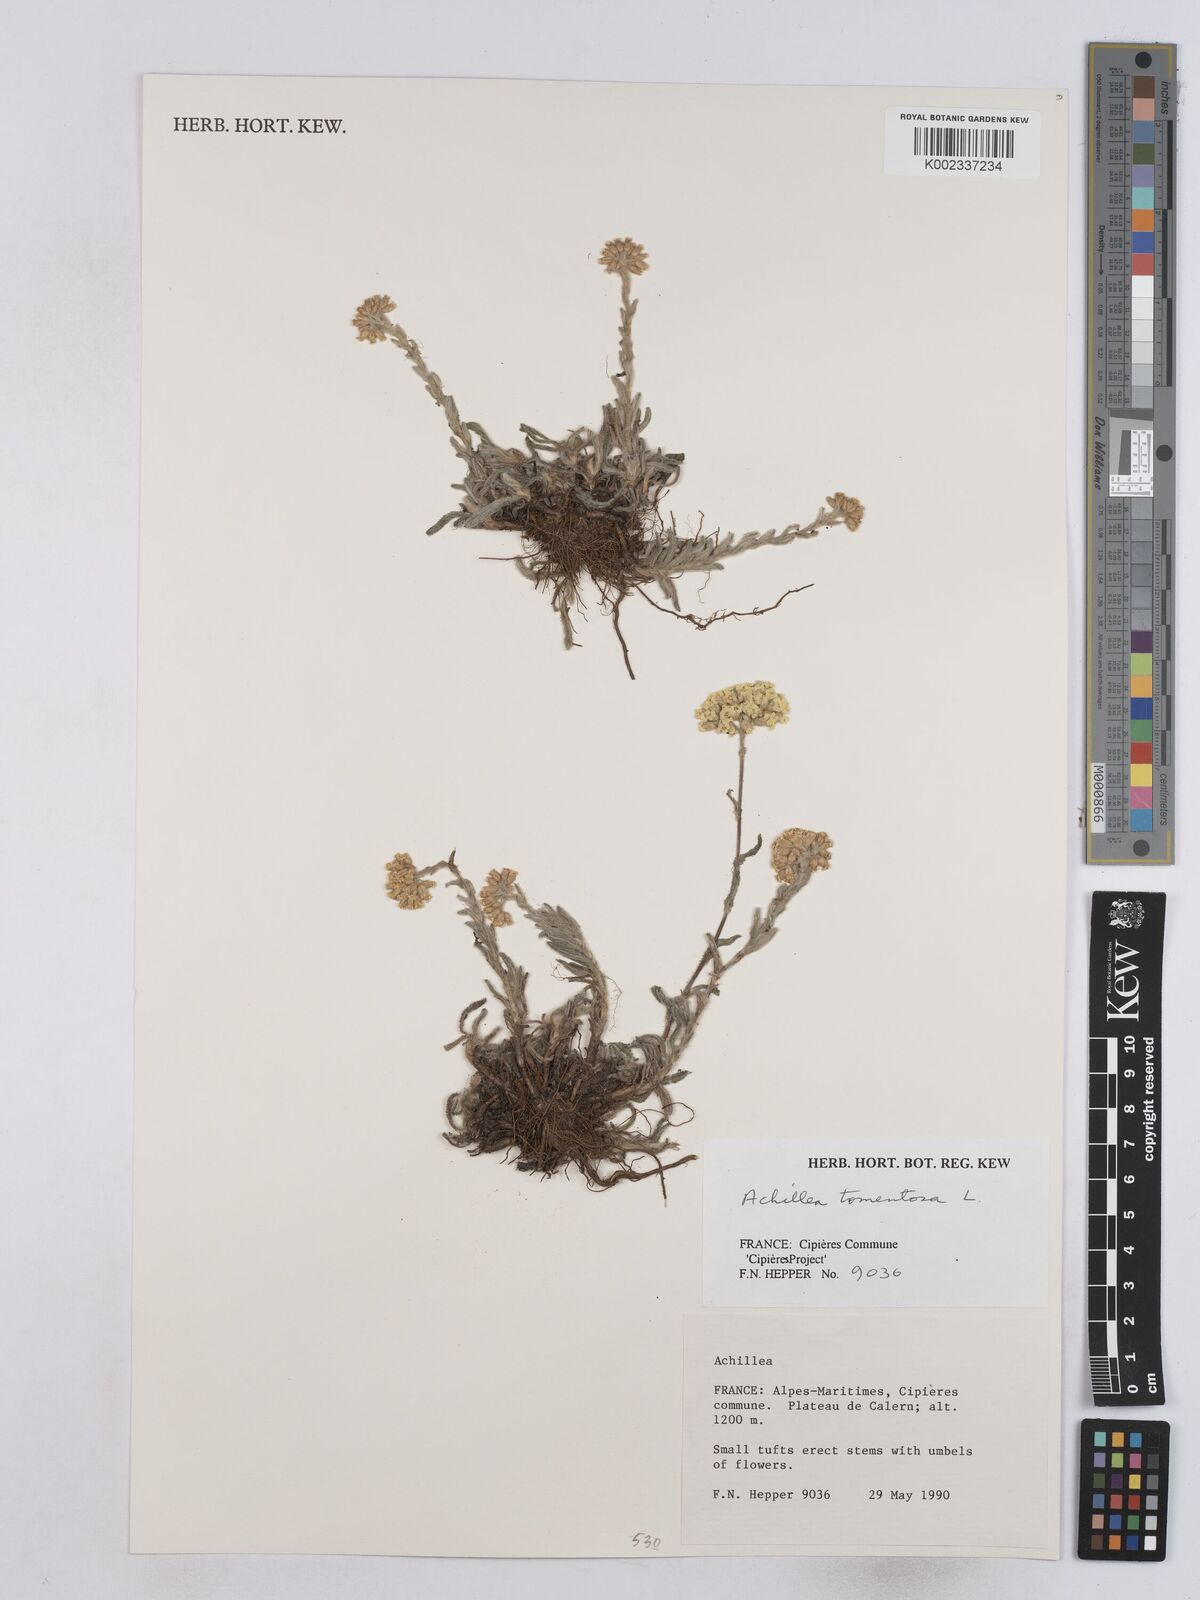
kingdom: Plantae
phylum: Tracheophyta
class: Magnoliopsida
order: Asterales
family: Asteraceae
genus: Achillea
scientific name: Achillea tomentosa
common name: Yellow milfoil
